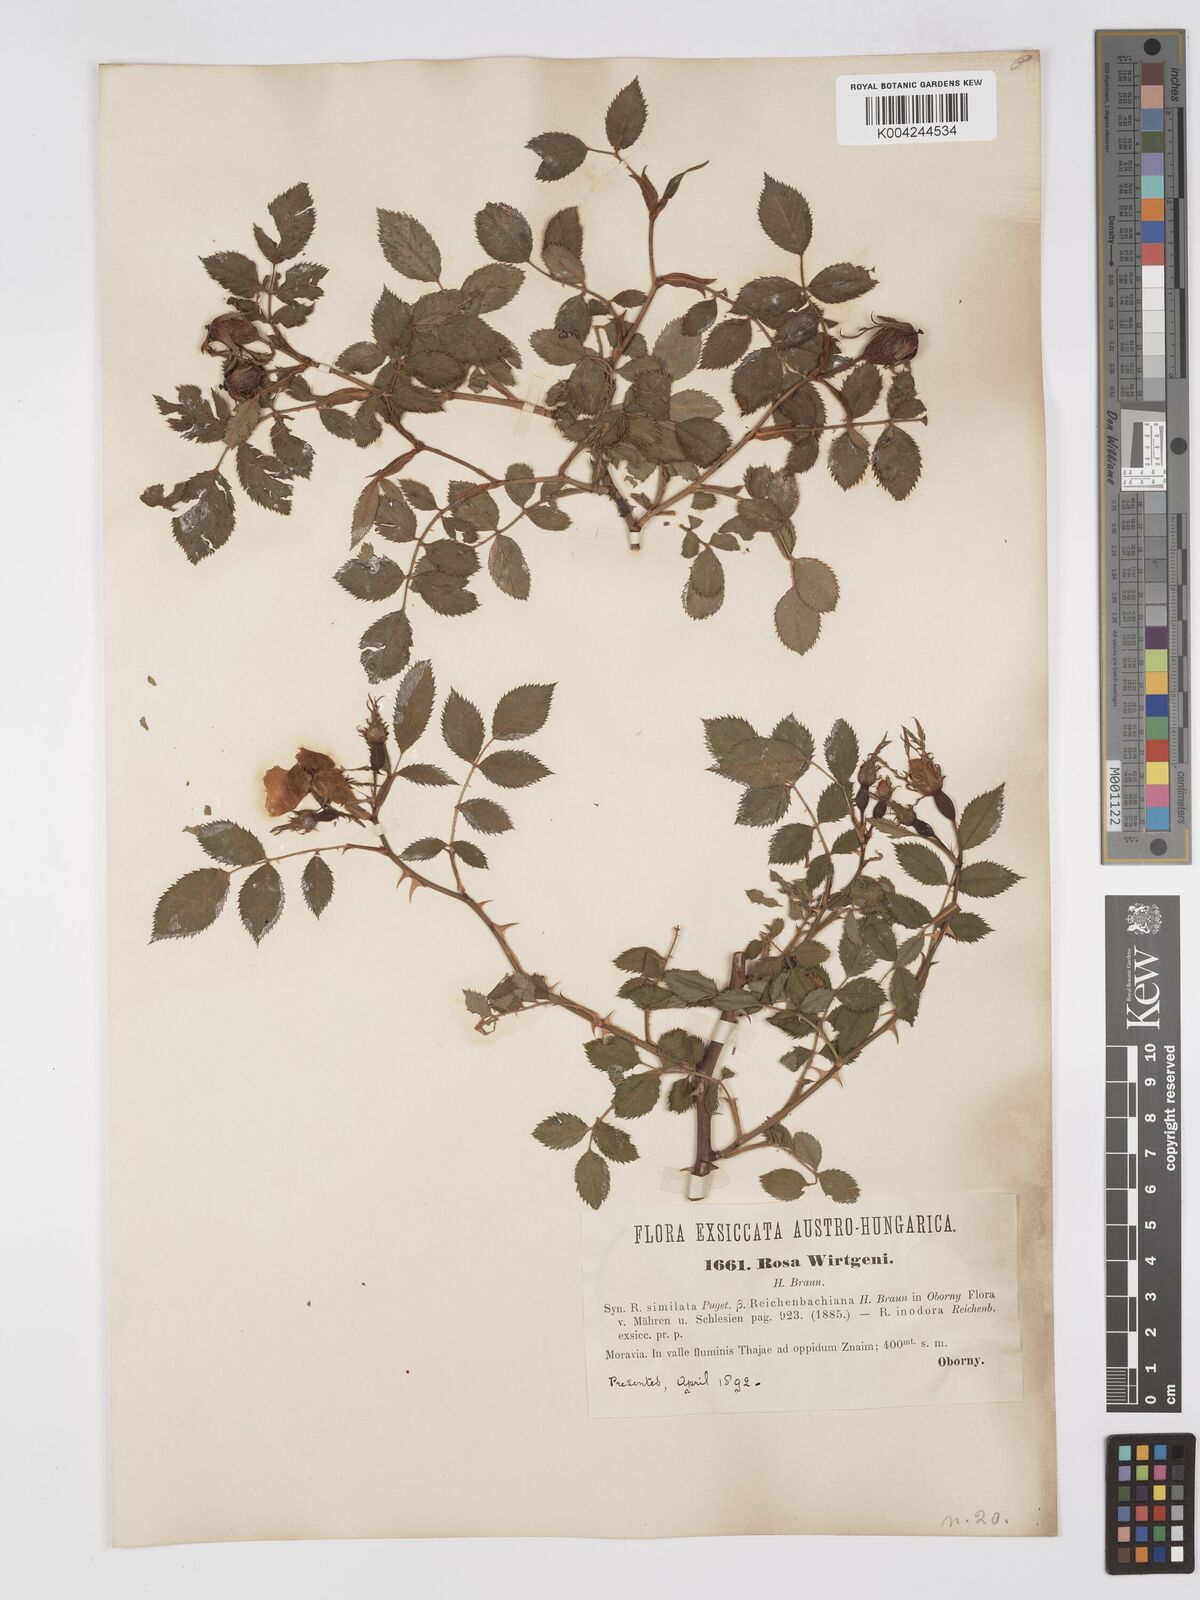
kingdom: Plantae
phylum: Tracheophyta
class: Magnoliopsida
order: Rosales
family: Rosaceae
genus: Rosa
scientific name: Rosa
